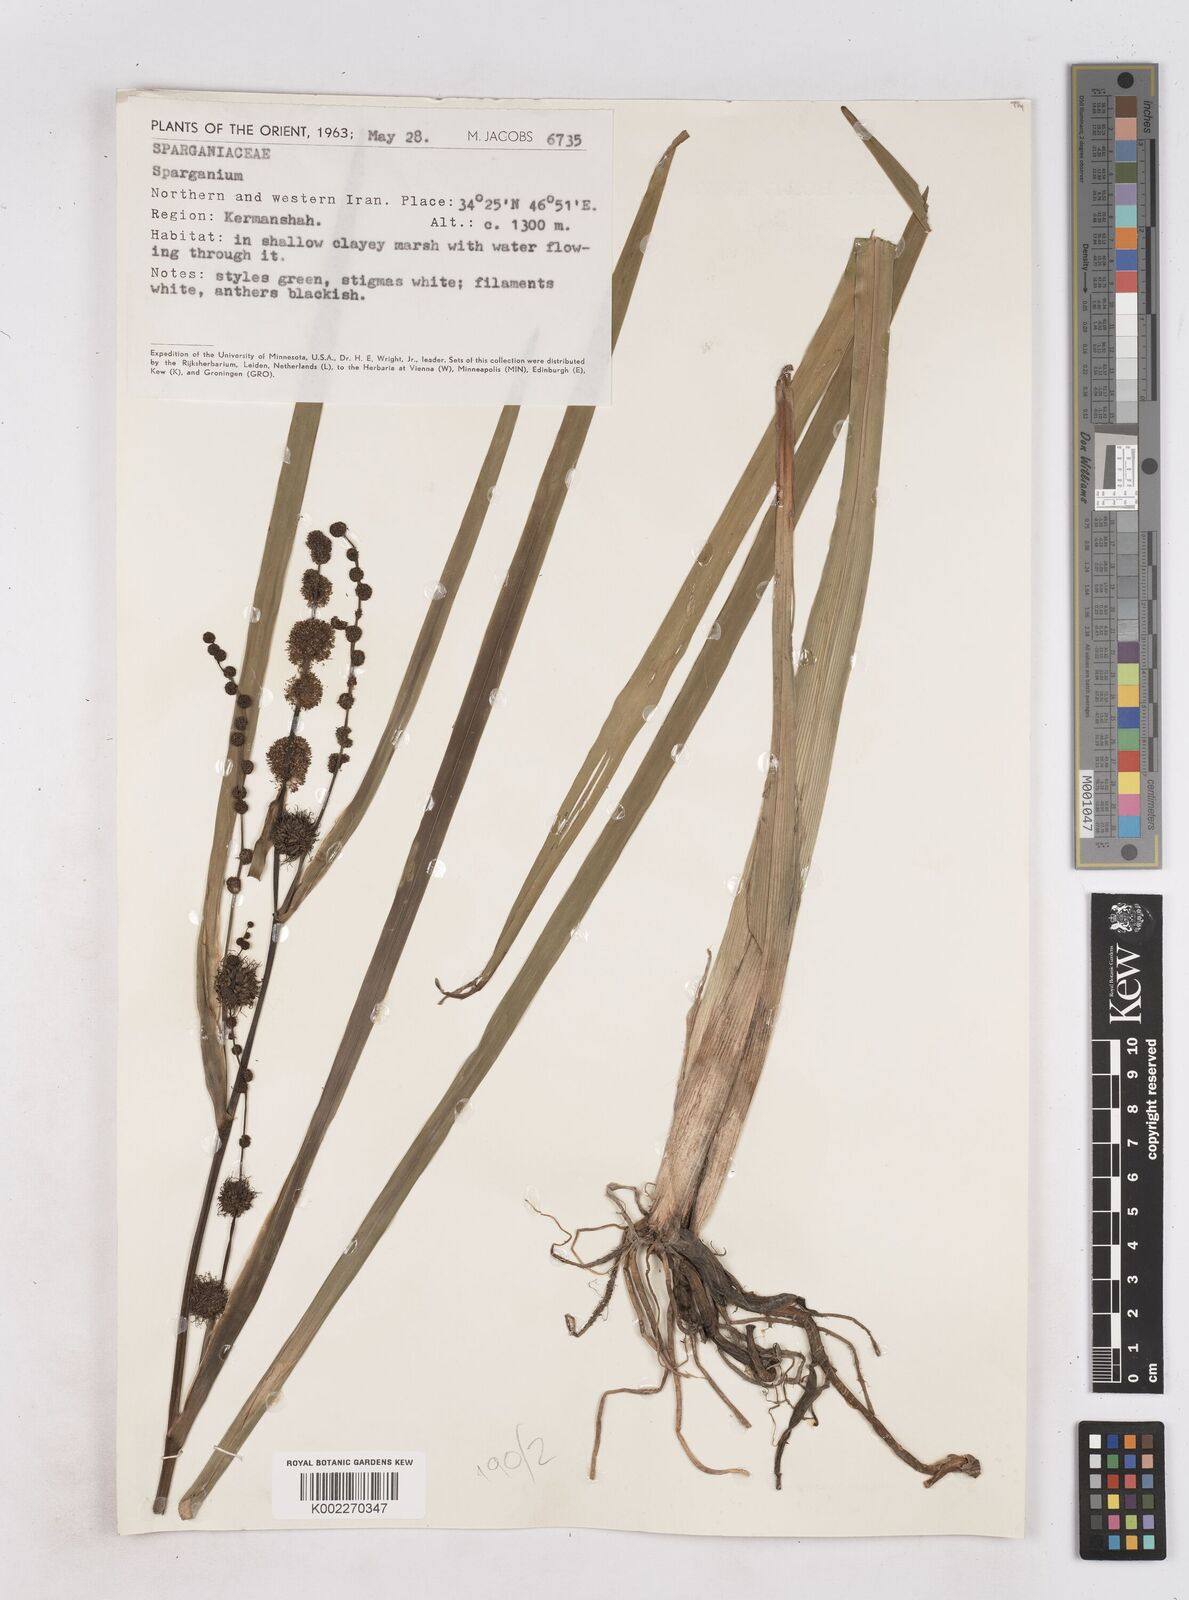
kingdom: Plantae
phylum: Tracheophyta
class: Liliopsida
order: Poales
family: Typhaceae
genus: Sparganium
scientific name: Sparganium
